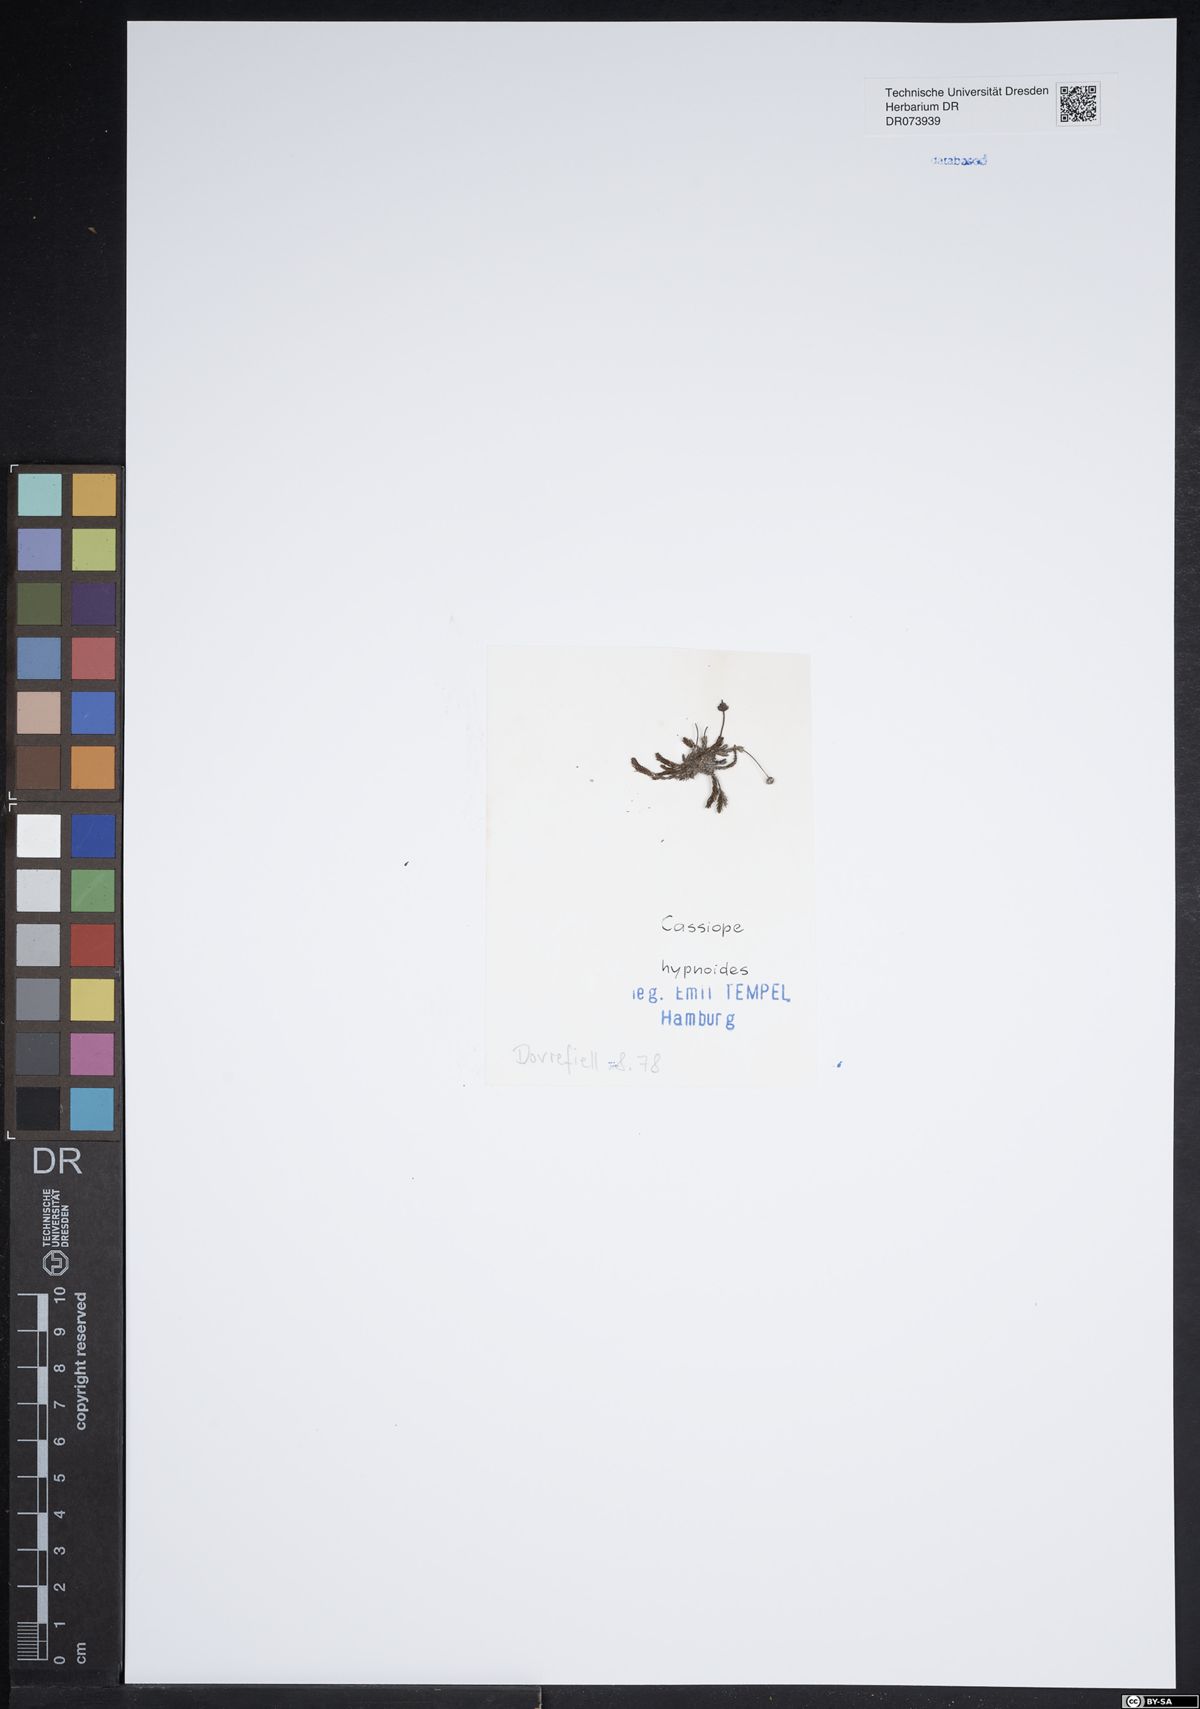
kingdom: Plantae
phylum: Tracheophyta
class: Magnoliopsida
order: Ericales
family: Ericaceae
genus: Harrimanella
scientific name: Harrimanella hypnoides
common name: Moss bell heather
